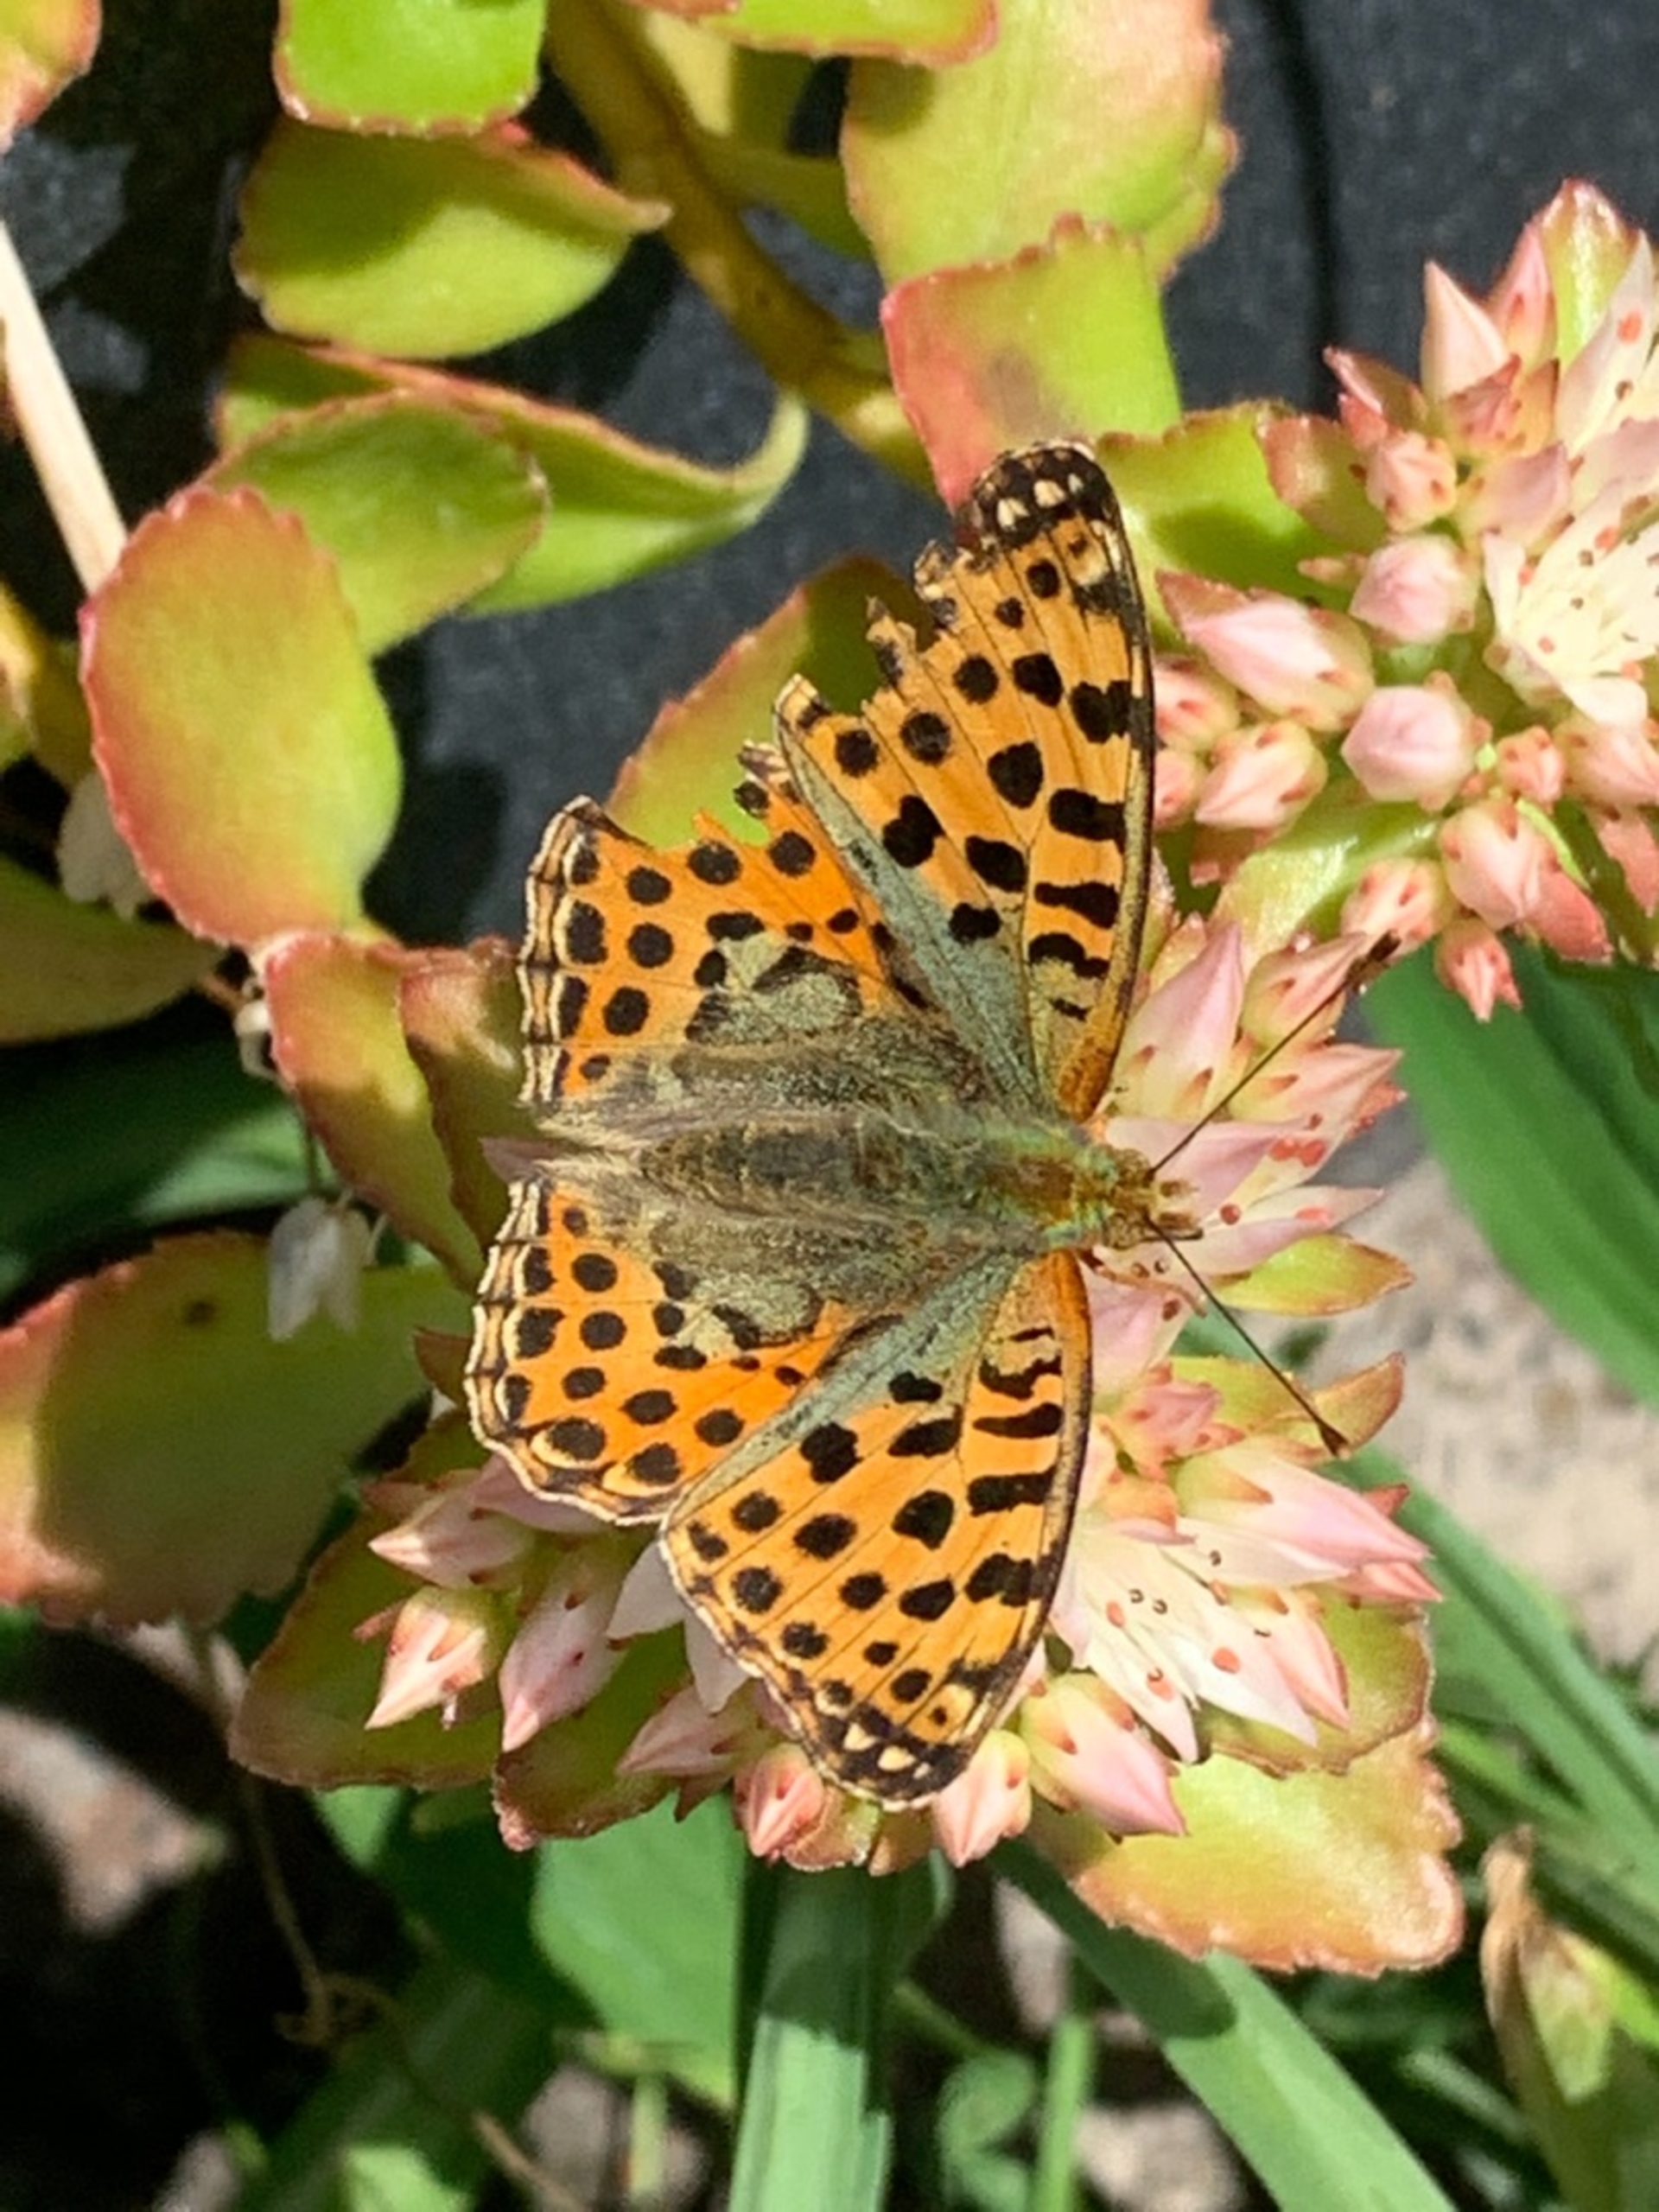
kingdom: Animalia
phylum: Arthropoda
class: Insecta
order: Lepidoptera
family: Nymphalidae
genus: Issoria
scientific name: Issoria lathonia
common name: Storplettet perlemorsommerfugl
